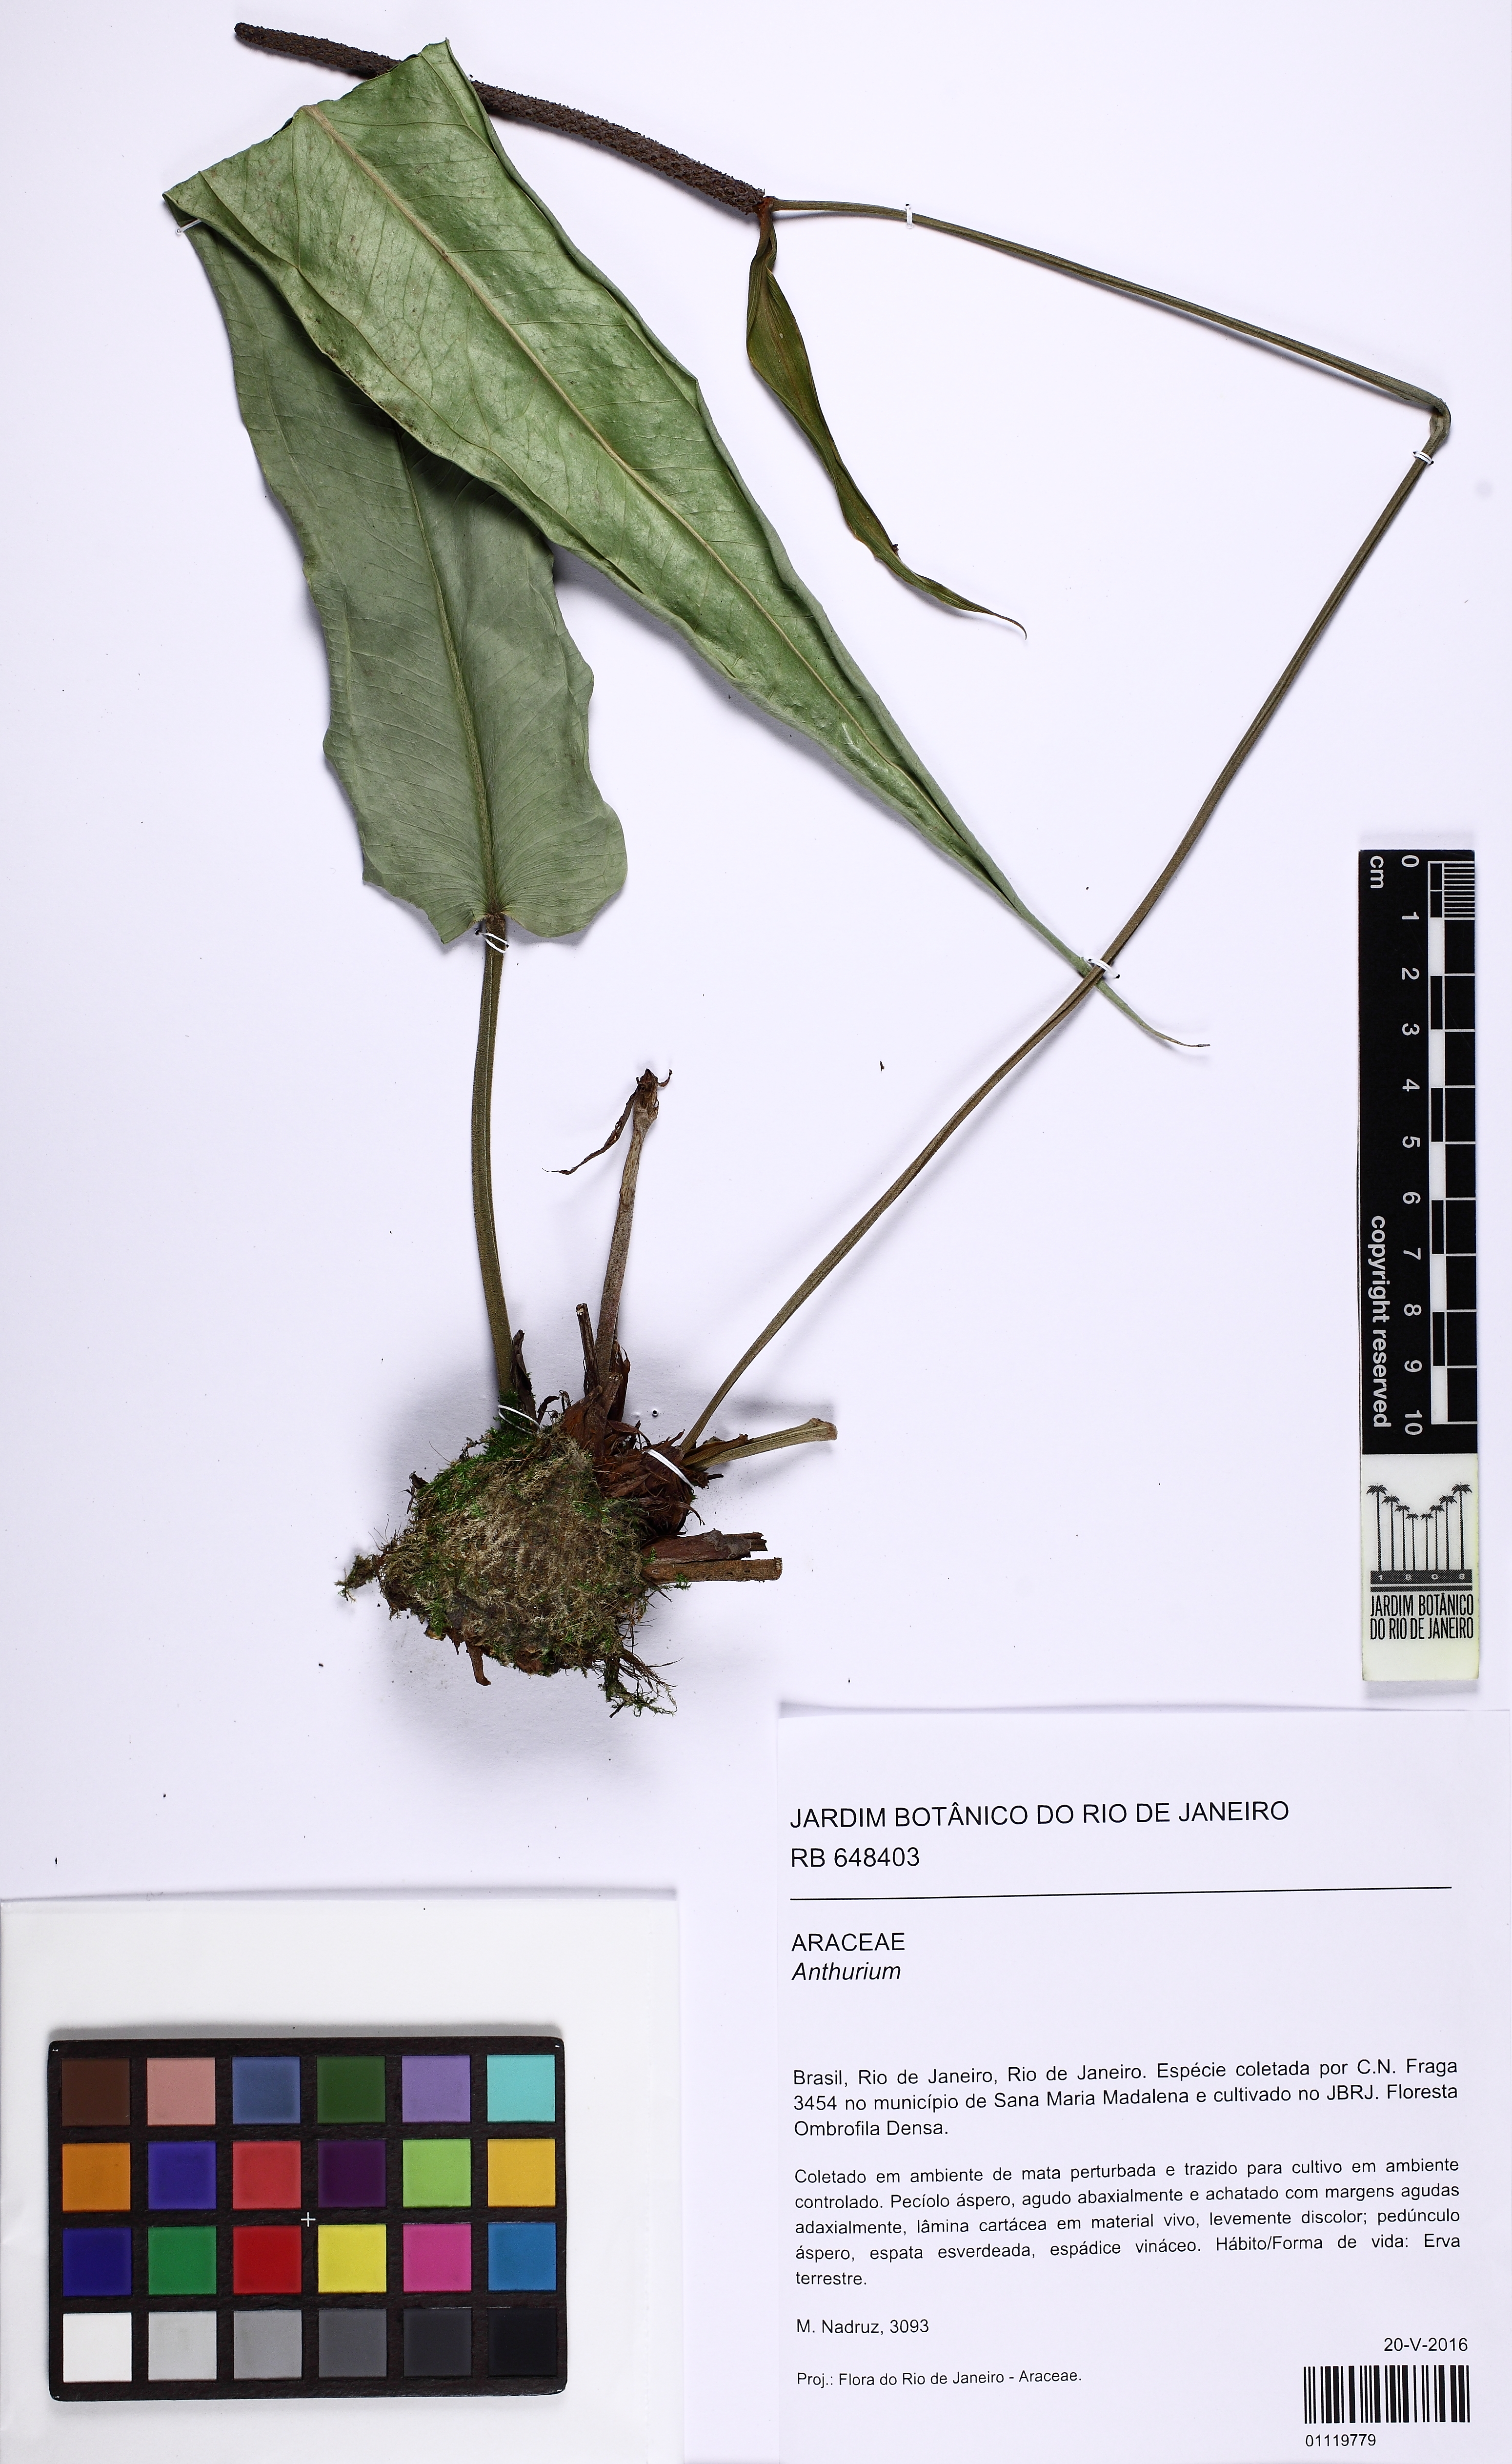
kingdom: Plantae
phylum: Tracheophyta
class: Liliopsida
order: Alismatales
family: Araceae
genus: Anthurium
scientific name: Anthurium
